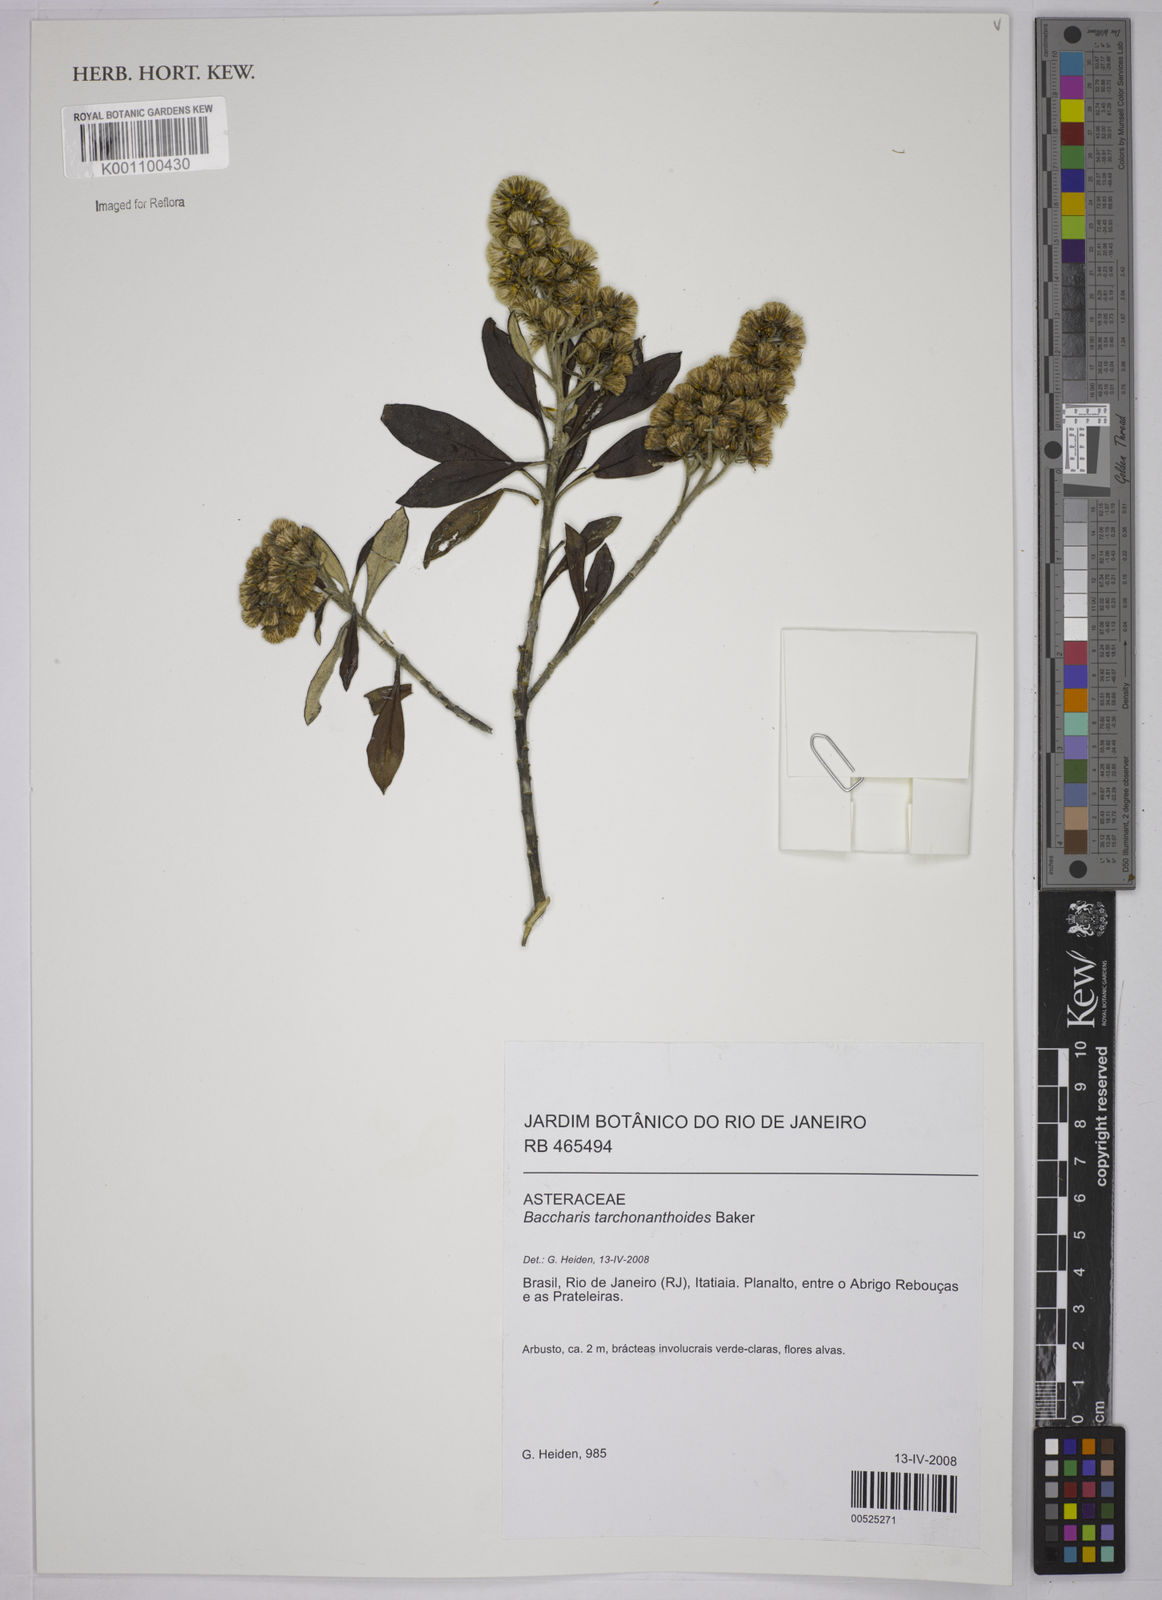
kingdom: Plantae
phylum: Tracheophyta
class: Magnoliopsida
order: Asterales
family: Asteraceae
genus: Baccharis
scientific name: Baccharis
